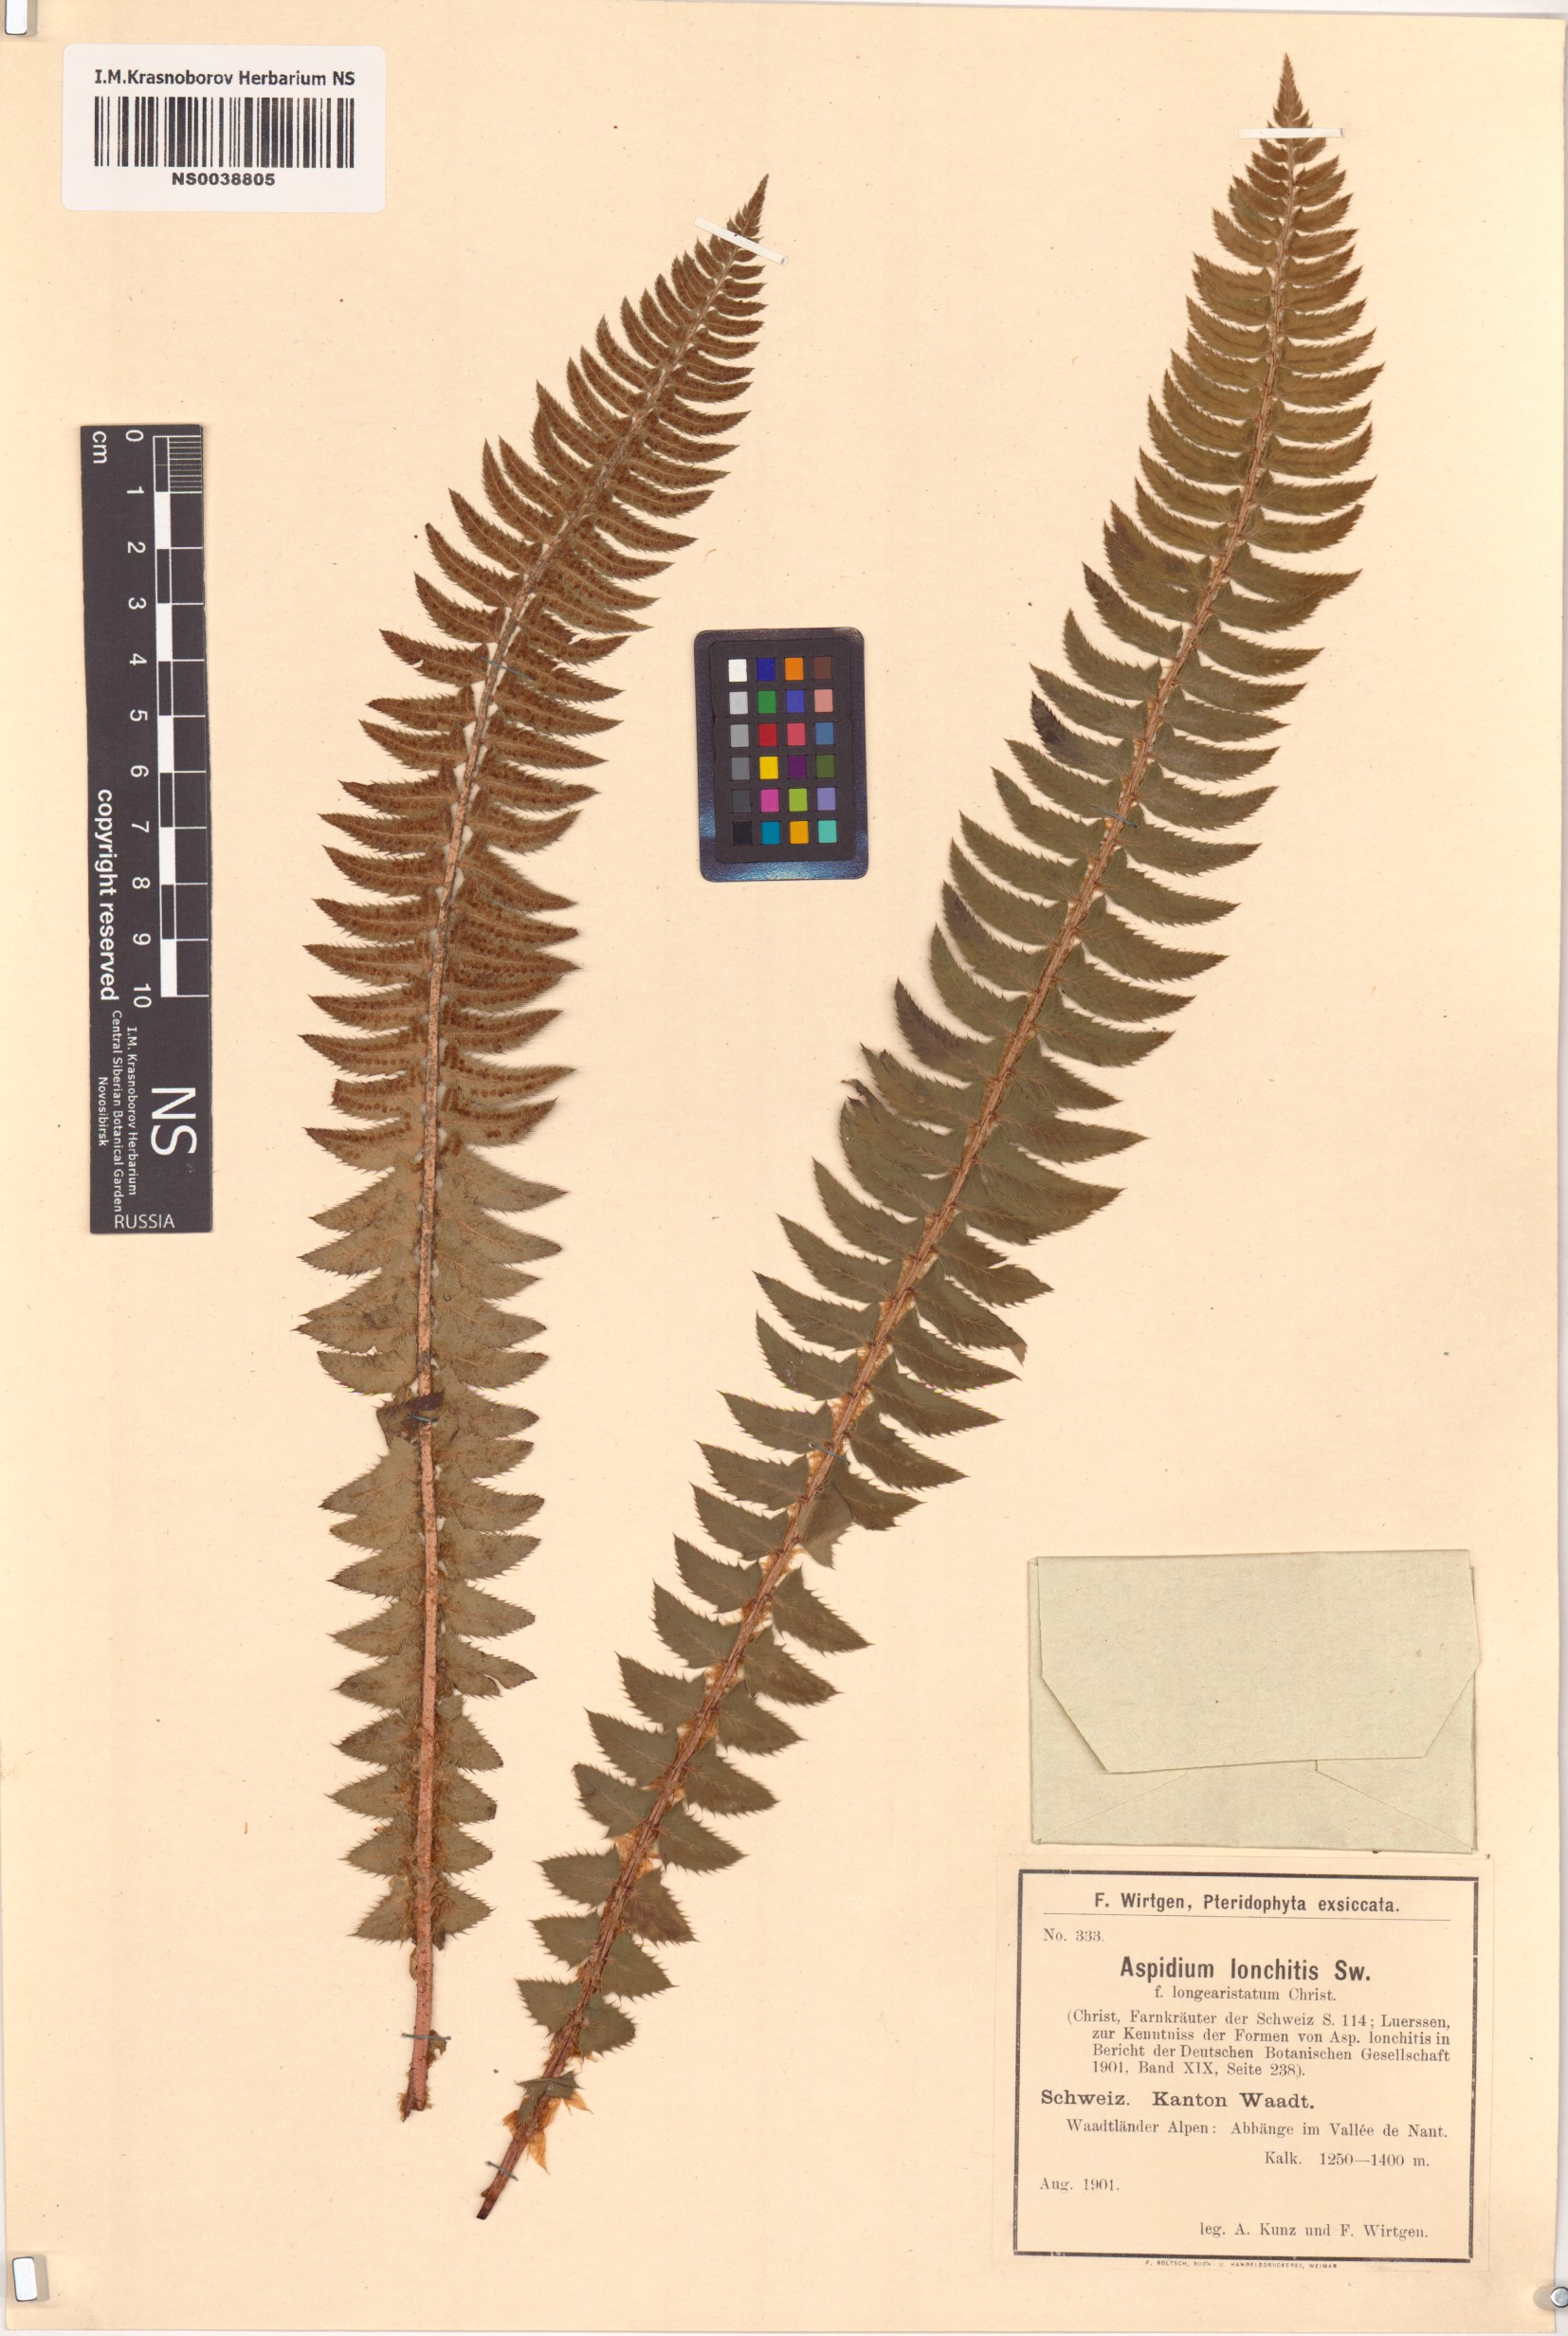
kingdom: Plantae
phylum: Tracheophyta
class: Polypodiopsida
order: Polypodiales
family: Dryopteridaceae
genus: Polystichum
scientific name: Polystichum lonchitis
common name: Holly fern
